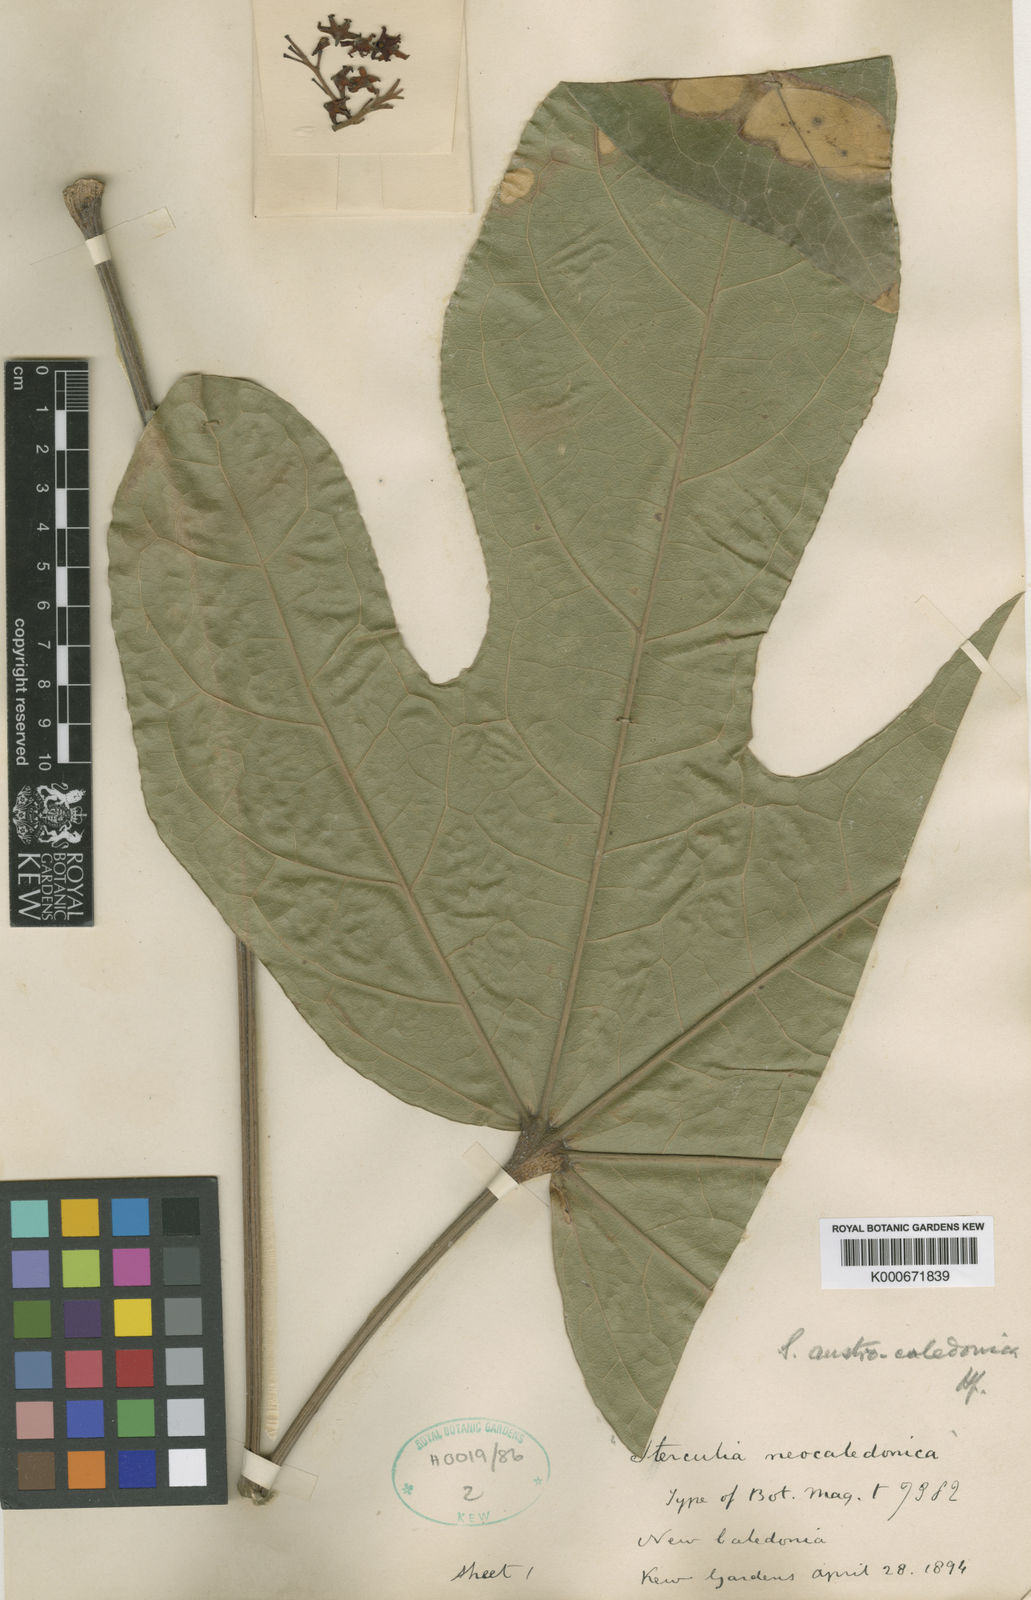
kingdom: Plantae
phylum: Tracheophyta
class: Magnoliopsida
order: Malvales
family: Malvaceae
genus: Acropogon
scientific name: Acropogon austrocaledonicus
